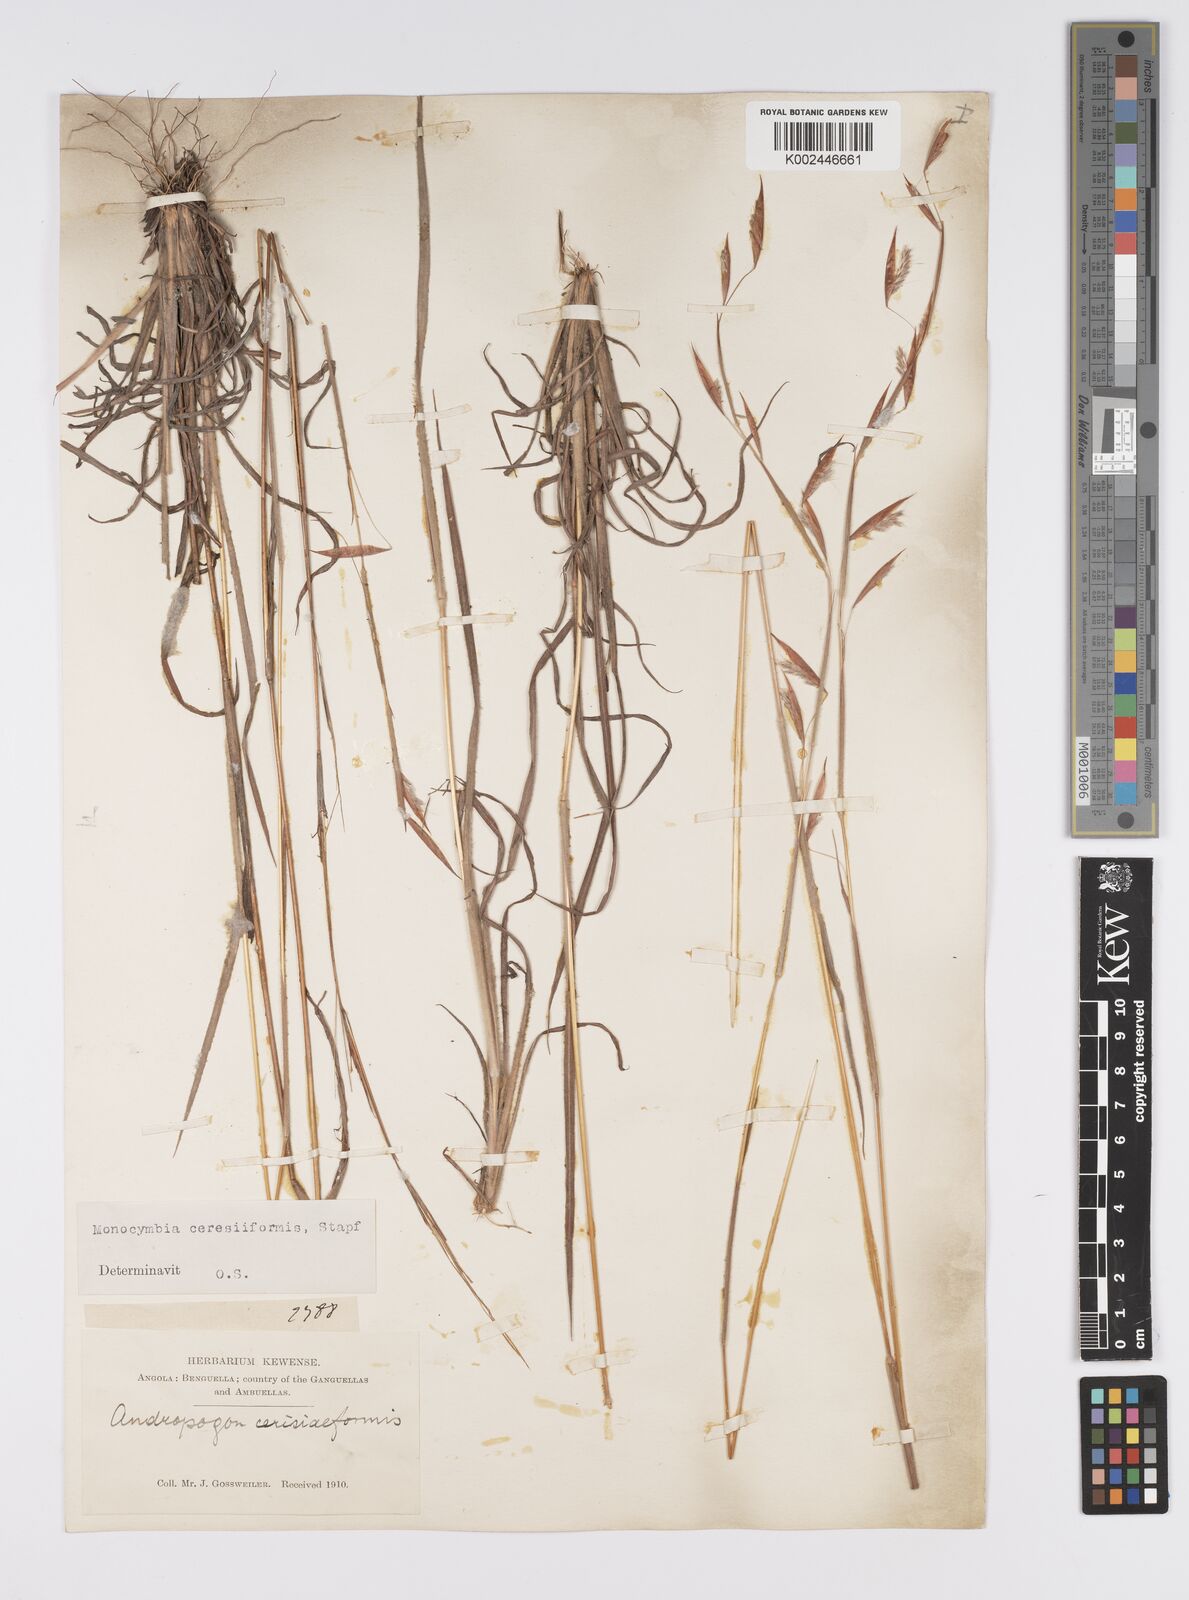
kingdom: Plantae
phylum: Tracheophyta
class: Liliopsida
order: Poales
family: Poaceae
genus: Monocymbium
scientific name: Monocymbium ceresiiforme
